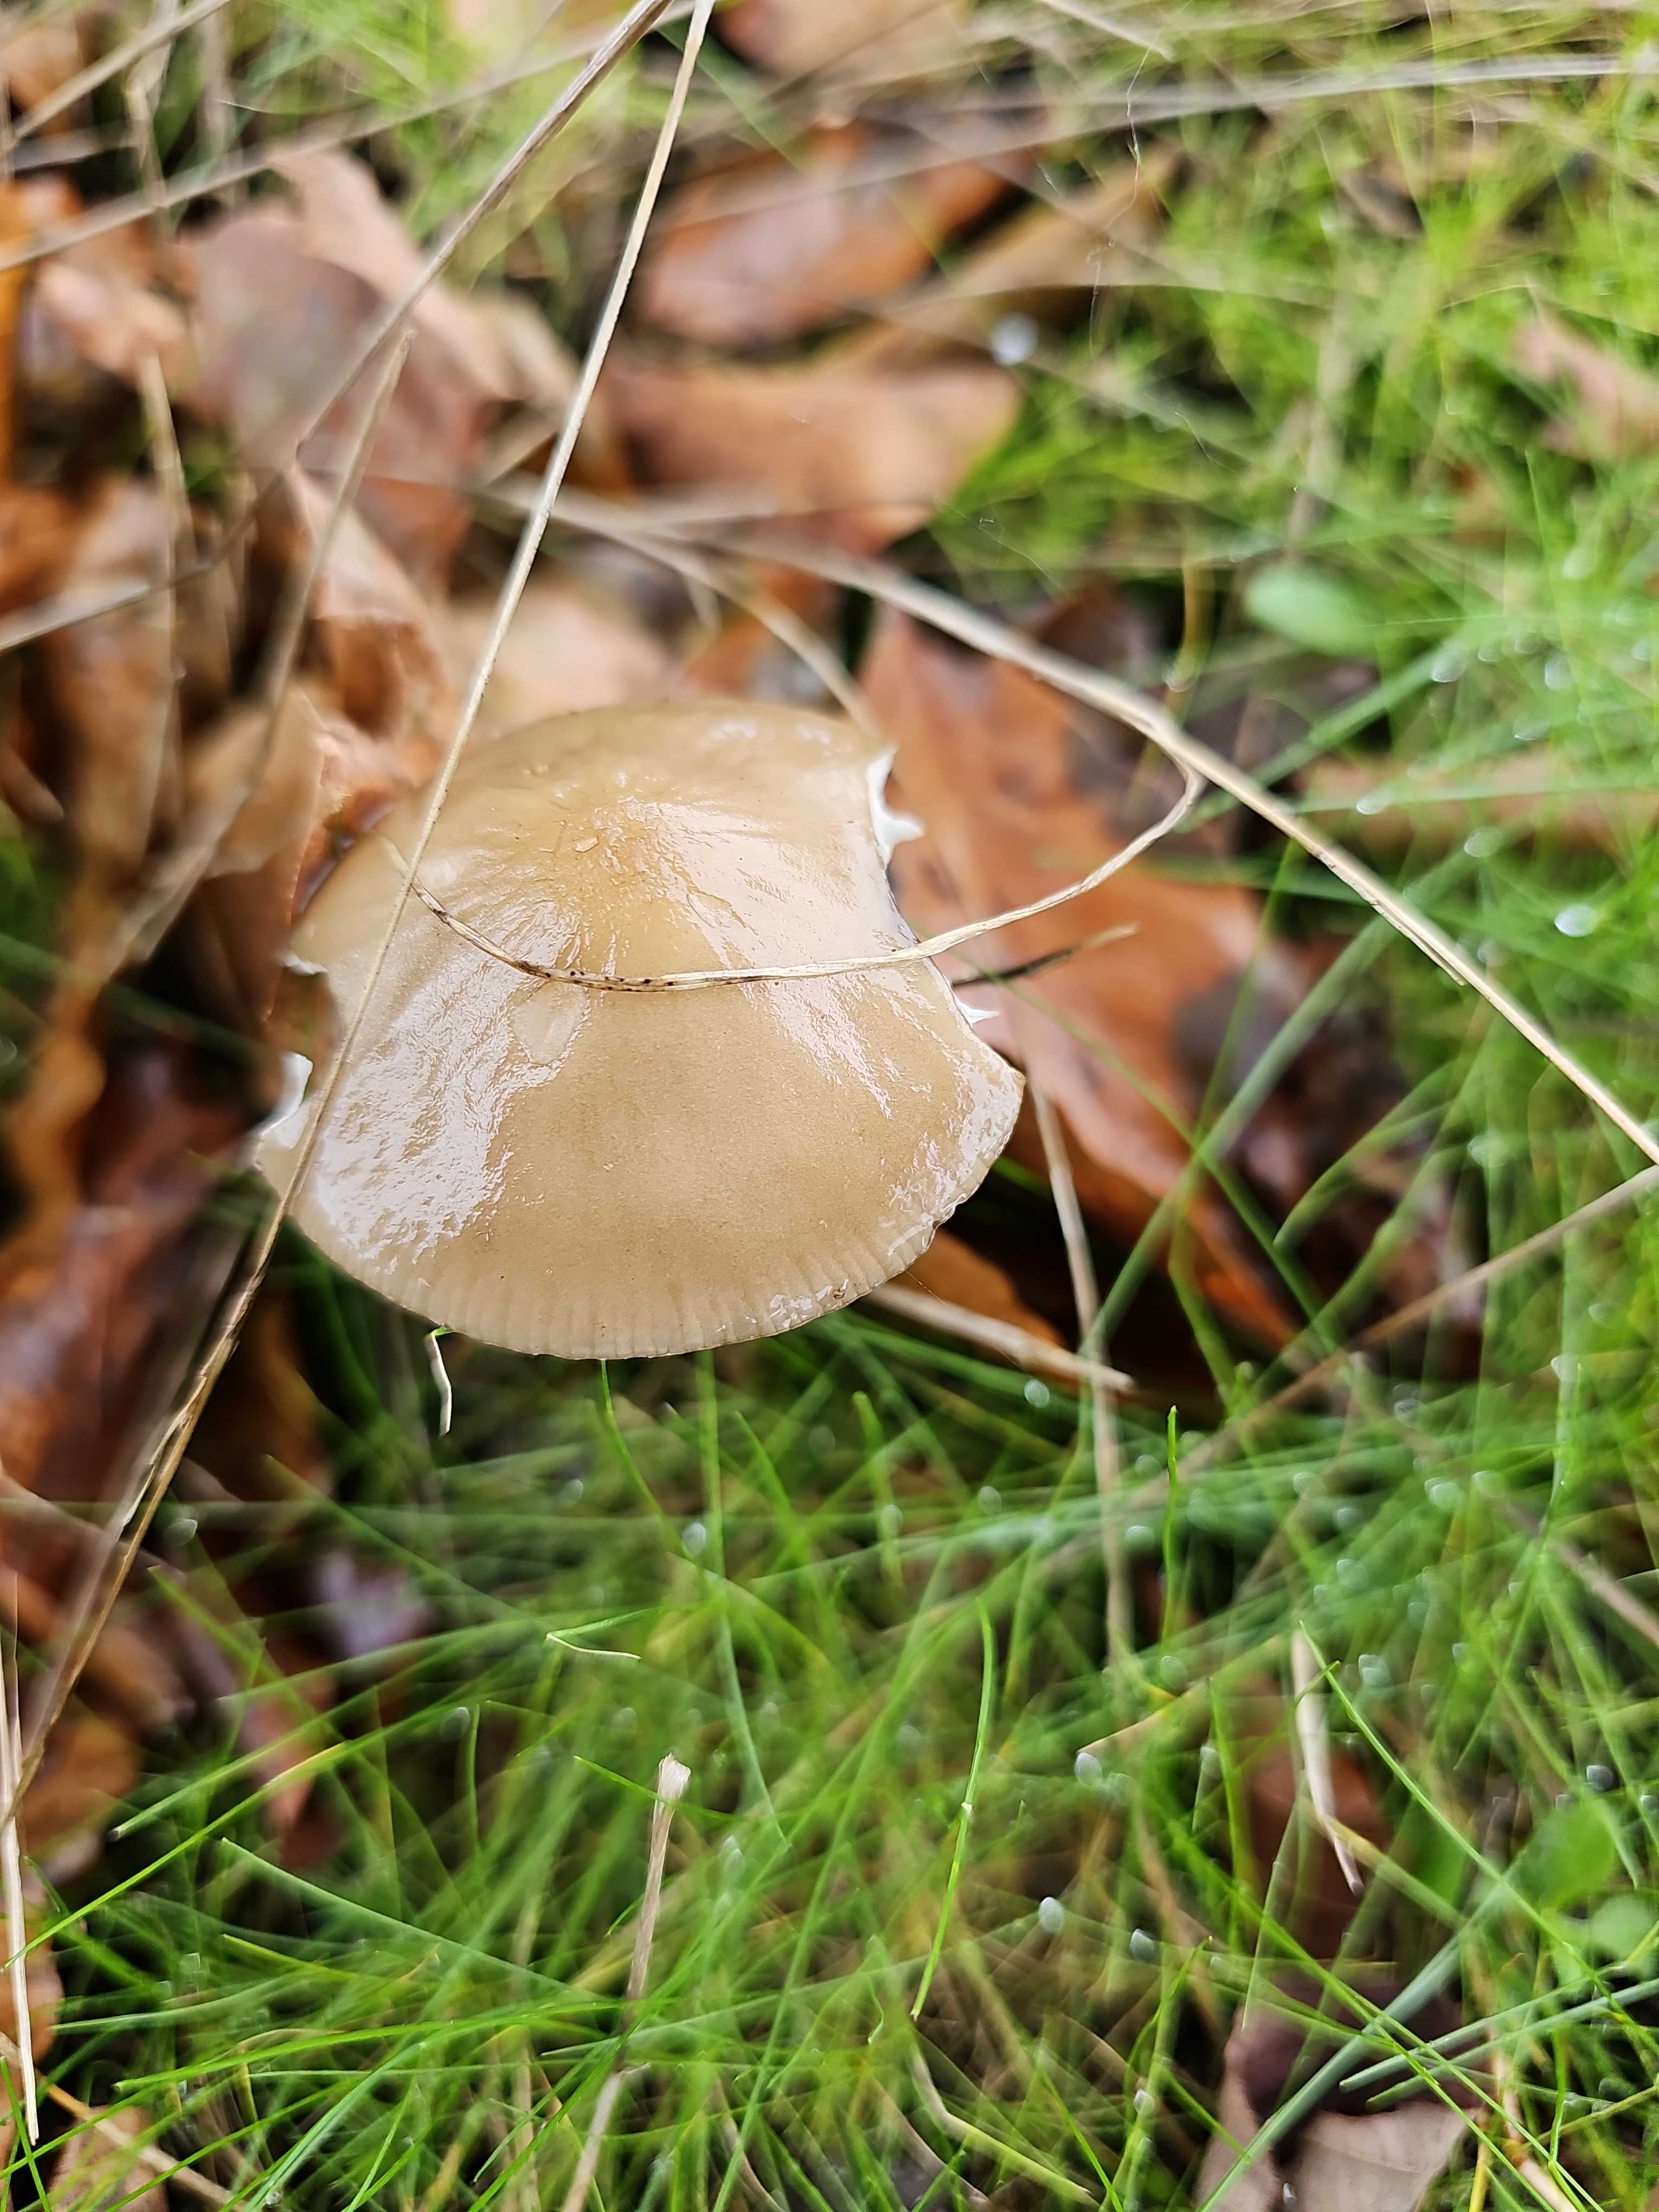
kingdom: Fungi
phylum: Basidiomycota
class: Agaricomycetes
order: Agaricales
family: Physalacriaceae
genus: Hymenopellis
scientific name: Hymenopellis radicata
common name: almindelig pælerodshat
